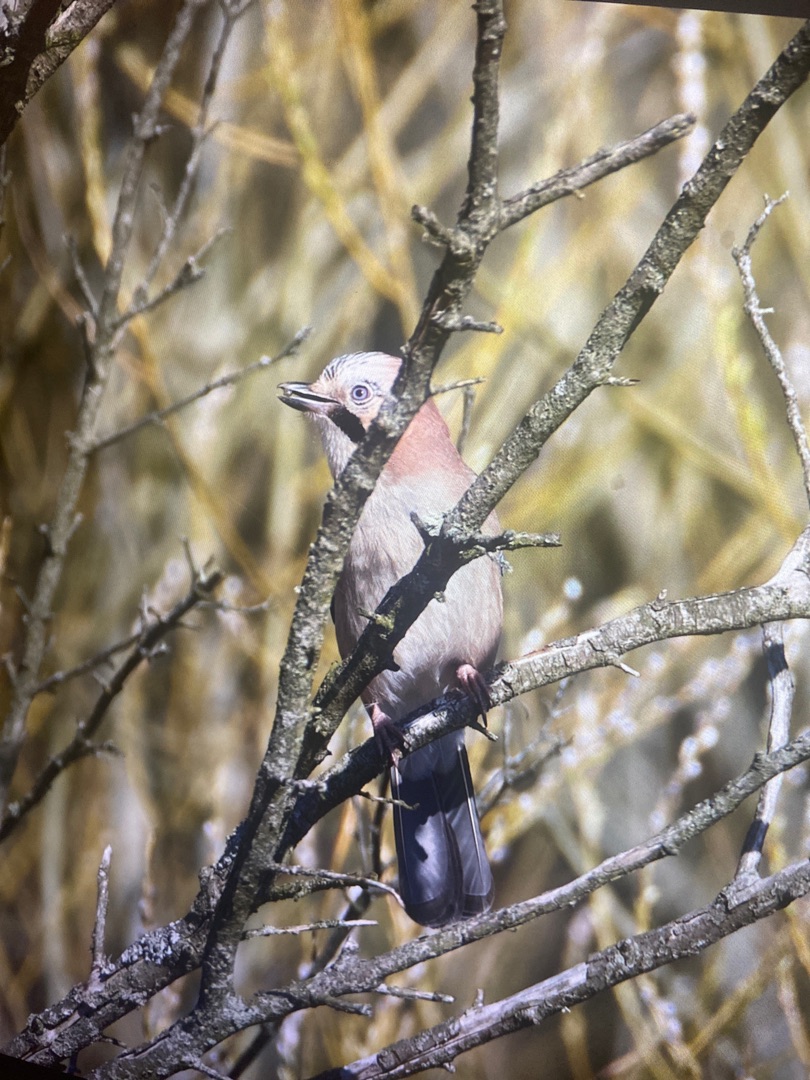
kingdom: Animalia
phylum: Chordata
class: Aves
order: Passeriformes
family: Corvidae
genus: Garrulus
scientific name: Garrulus glandarius
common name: Skovskade
